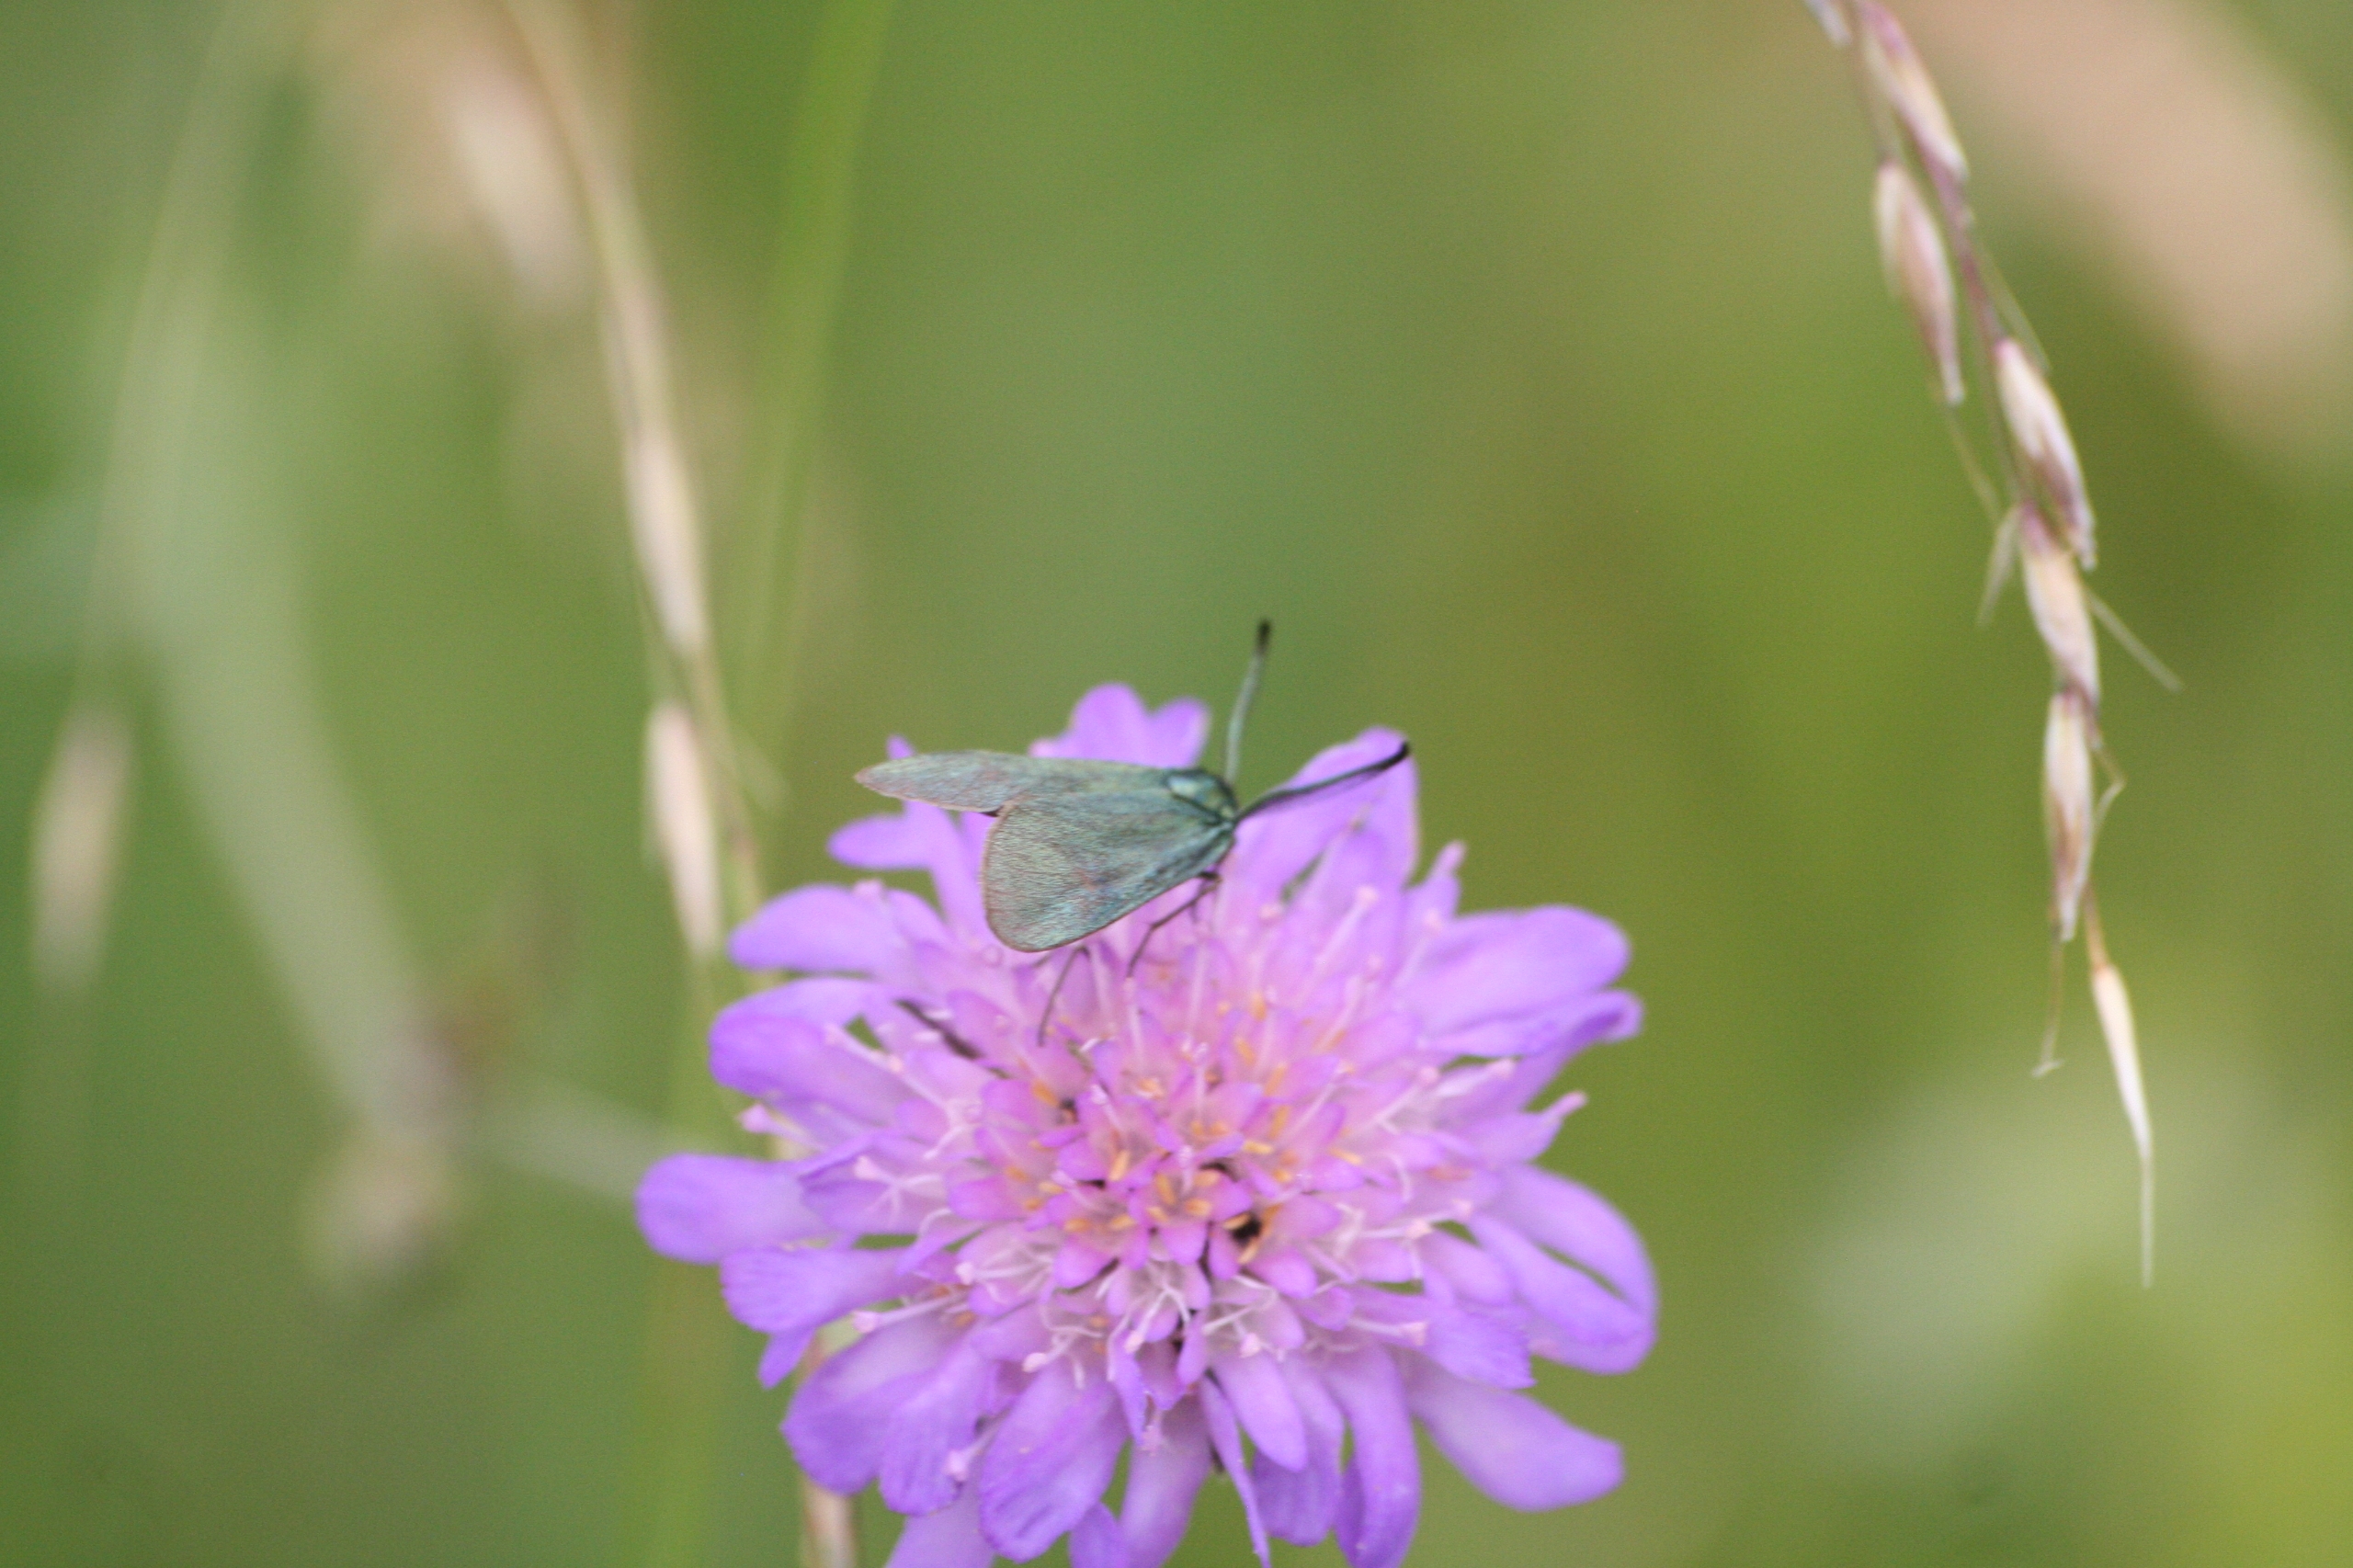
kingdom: Animalia
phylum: Arthropoda
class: Insecta
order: Lepidoptera
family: Zygaenidae
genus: Adscita
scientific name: Adscita statices
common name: Metalvinge
